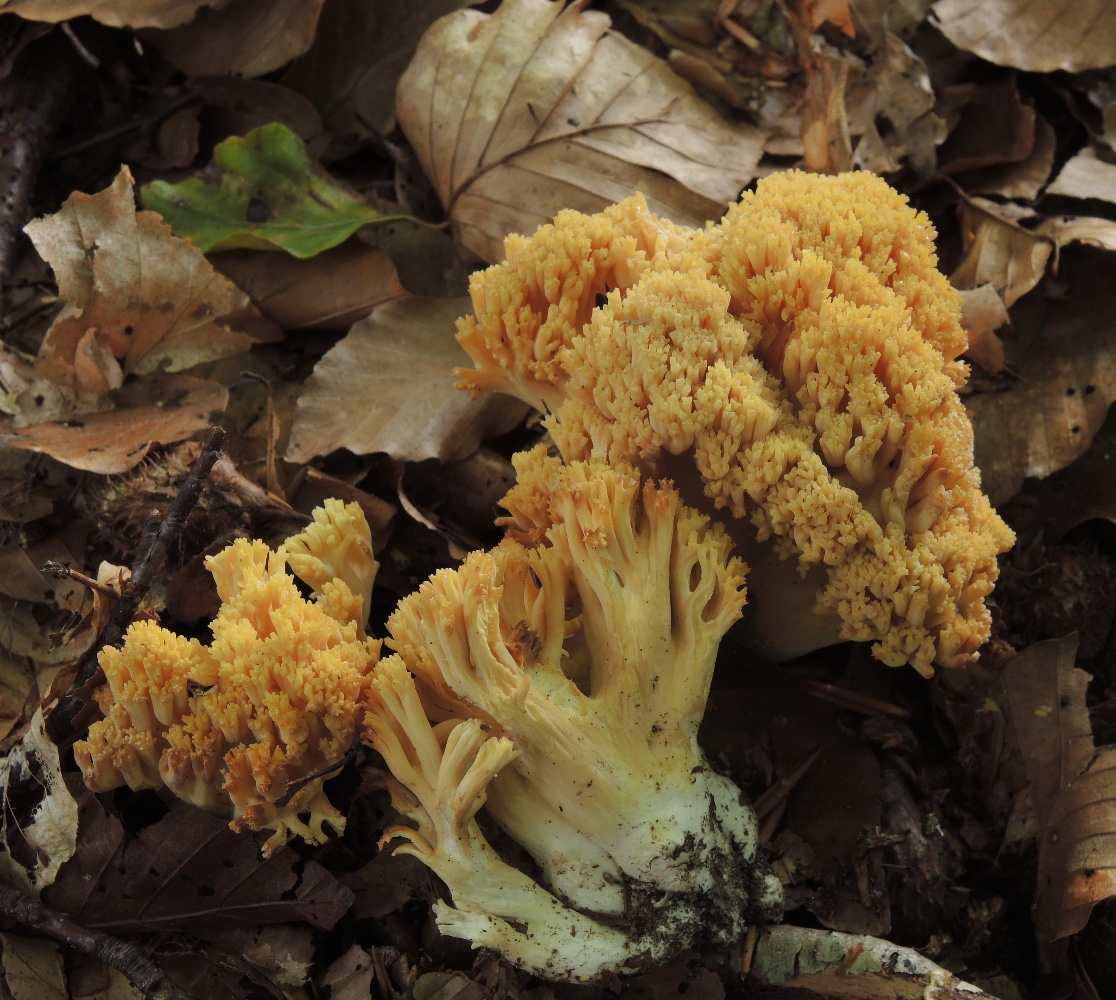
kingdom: Fungi
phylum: Basidiomycota
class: Agaricomycetes
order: Gomphales
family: Gomphaceae
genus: Ramaria
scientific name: Ramaria krieglsteineri
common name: smalsporet koralsvamp
